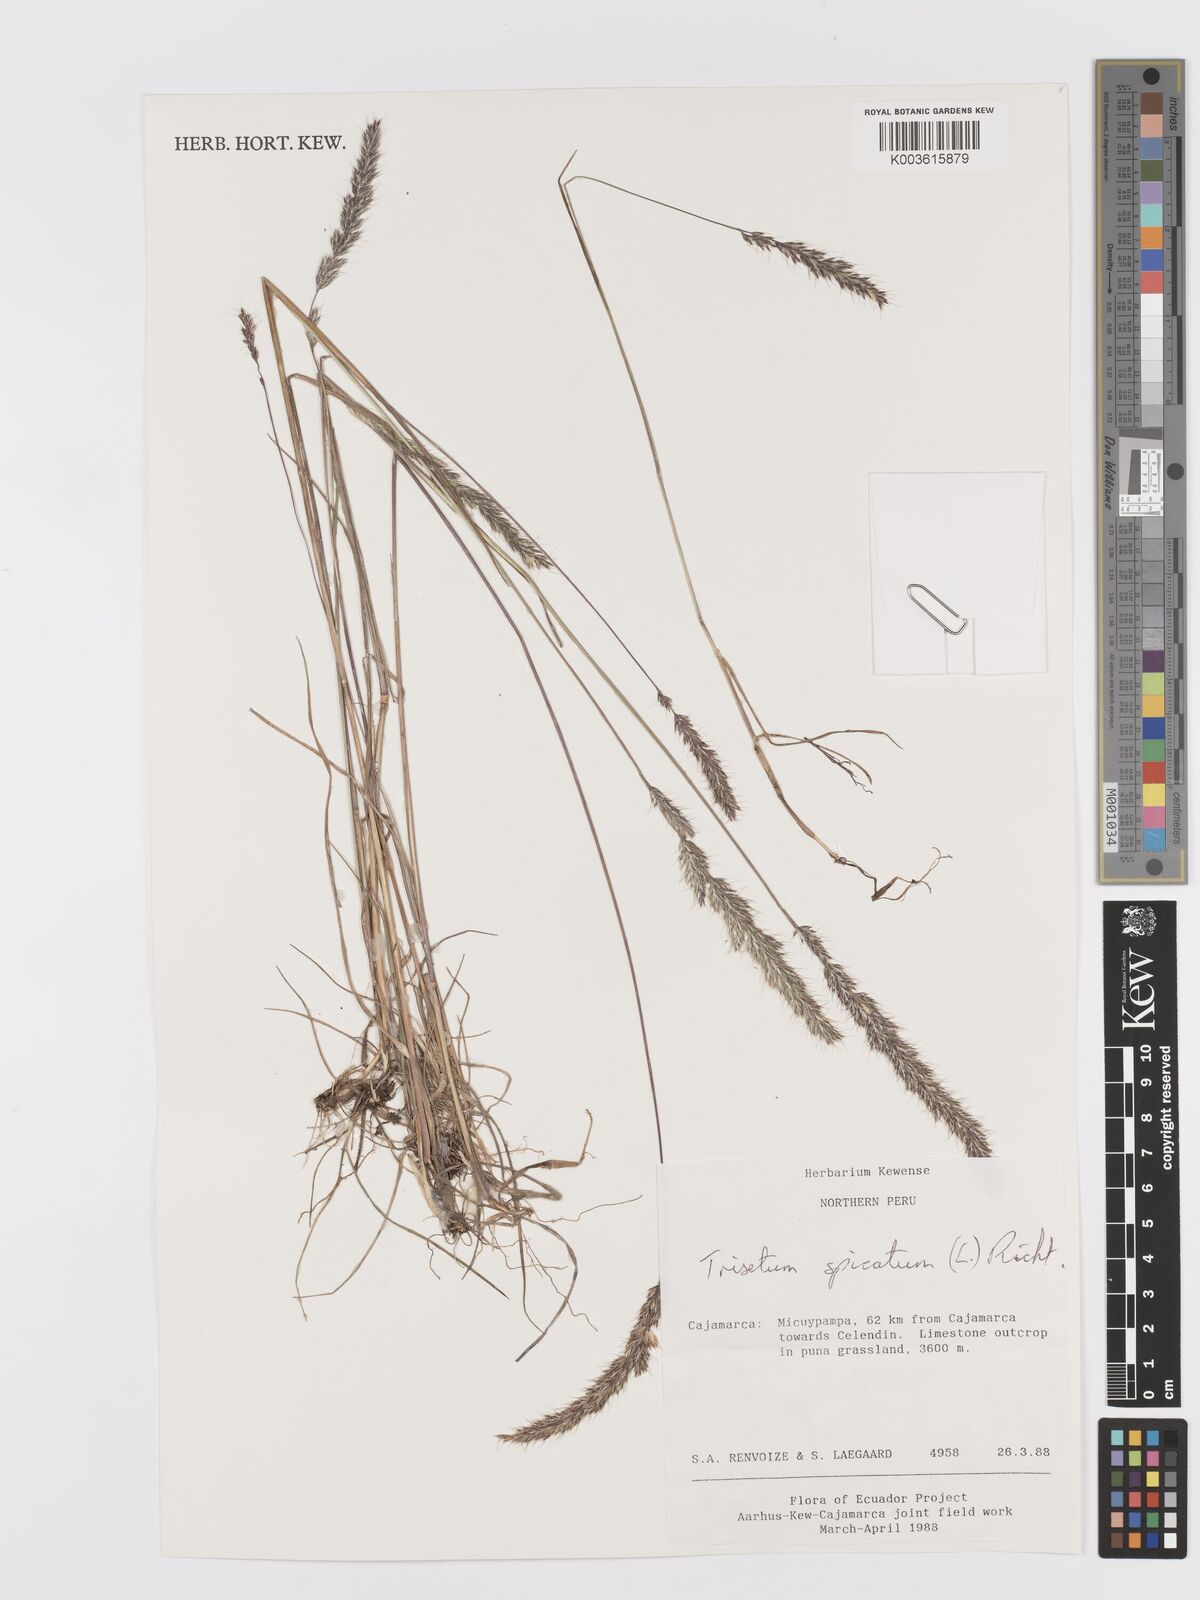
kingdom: Plantae
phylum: Tracheophyta
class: Liliopsida
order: Poales
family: Poaceae
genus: Koeleria
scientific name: Koeleria spicata
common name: Mountain trisetum
